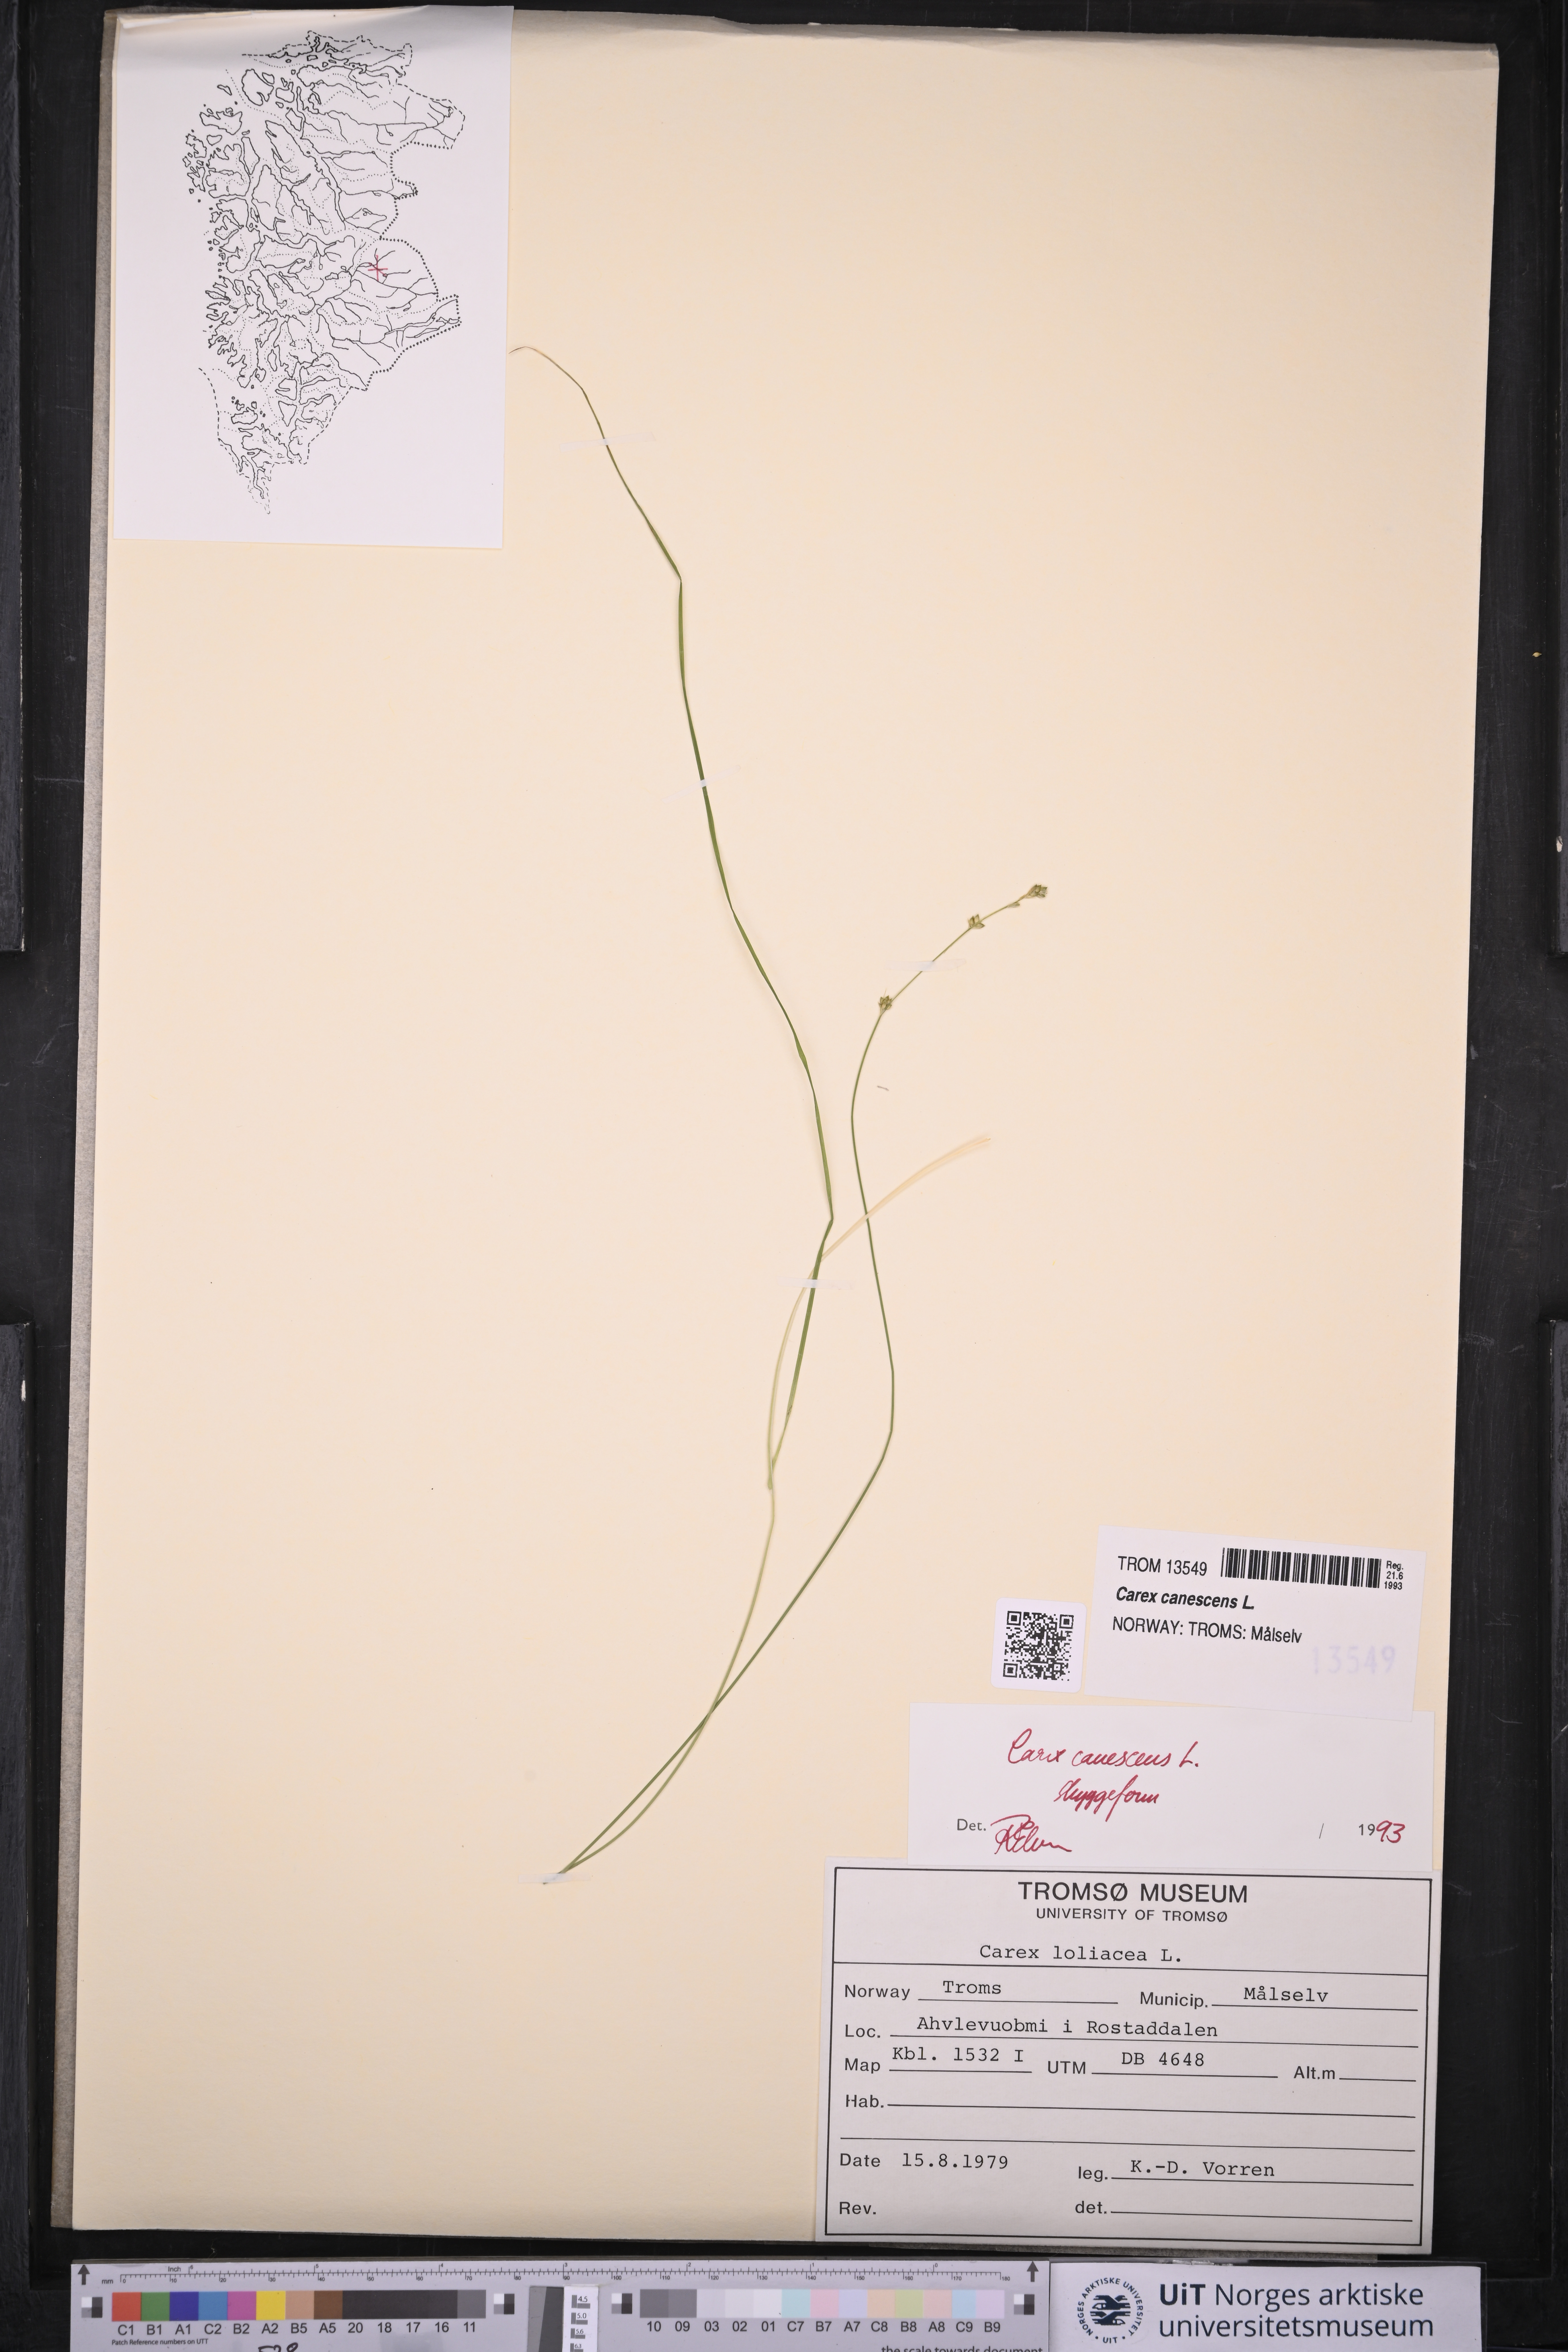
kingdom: Plantae
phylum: Tracheophyta
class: Liliopsida
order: Poales
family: Cyperaceae
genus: Carex
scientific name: Carex canescens
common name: White sedge
